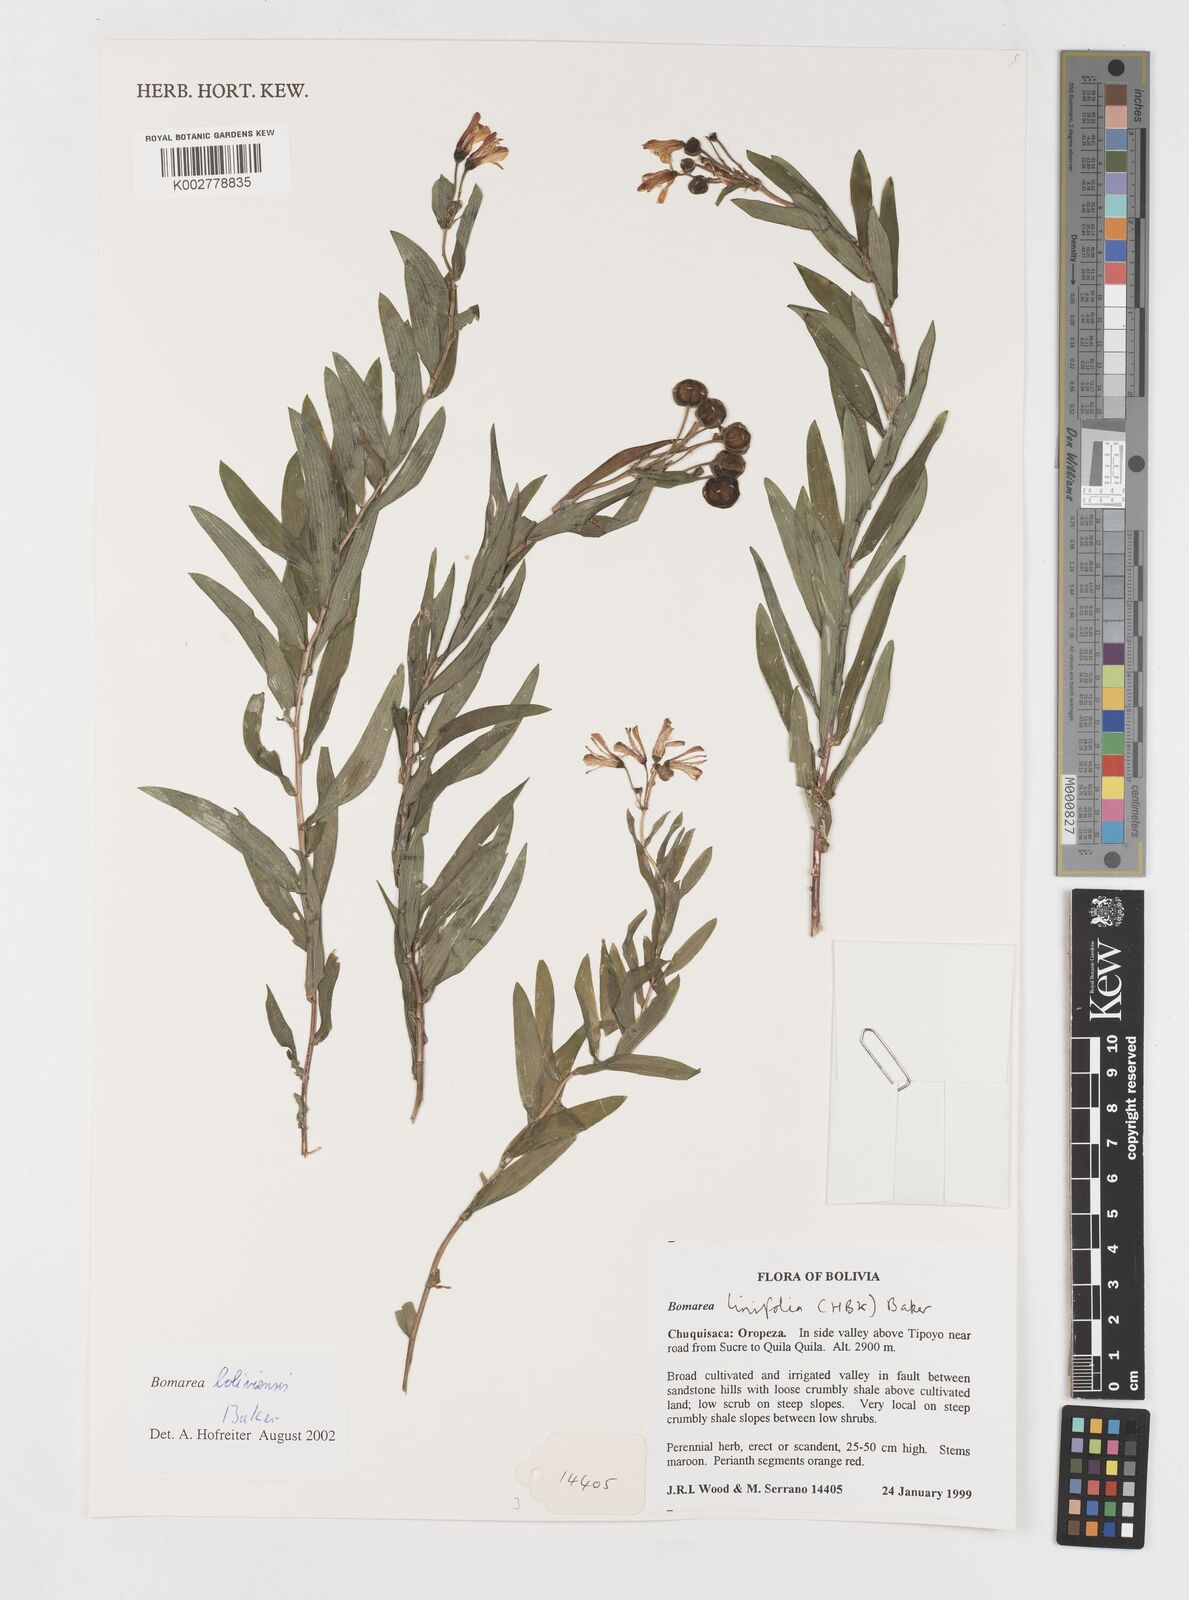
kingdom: Plantae
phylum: Tracheophyta
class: Liliopsida
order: Liliales
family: Alstroemeriaceae
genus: Bomarea
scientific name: Bomarea boliviensis
